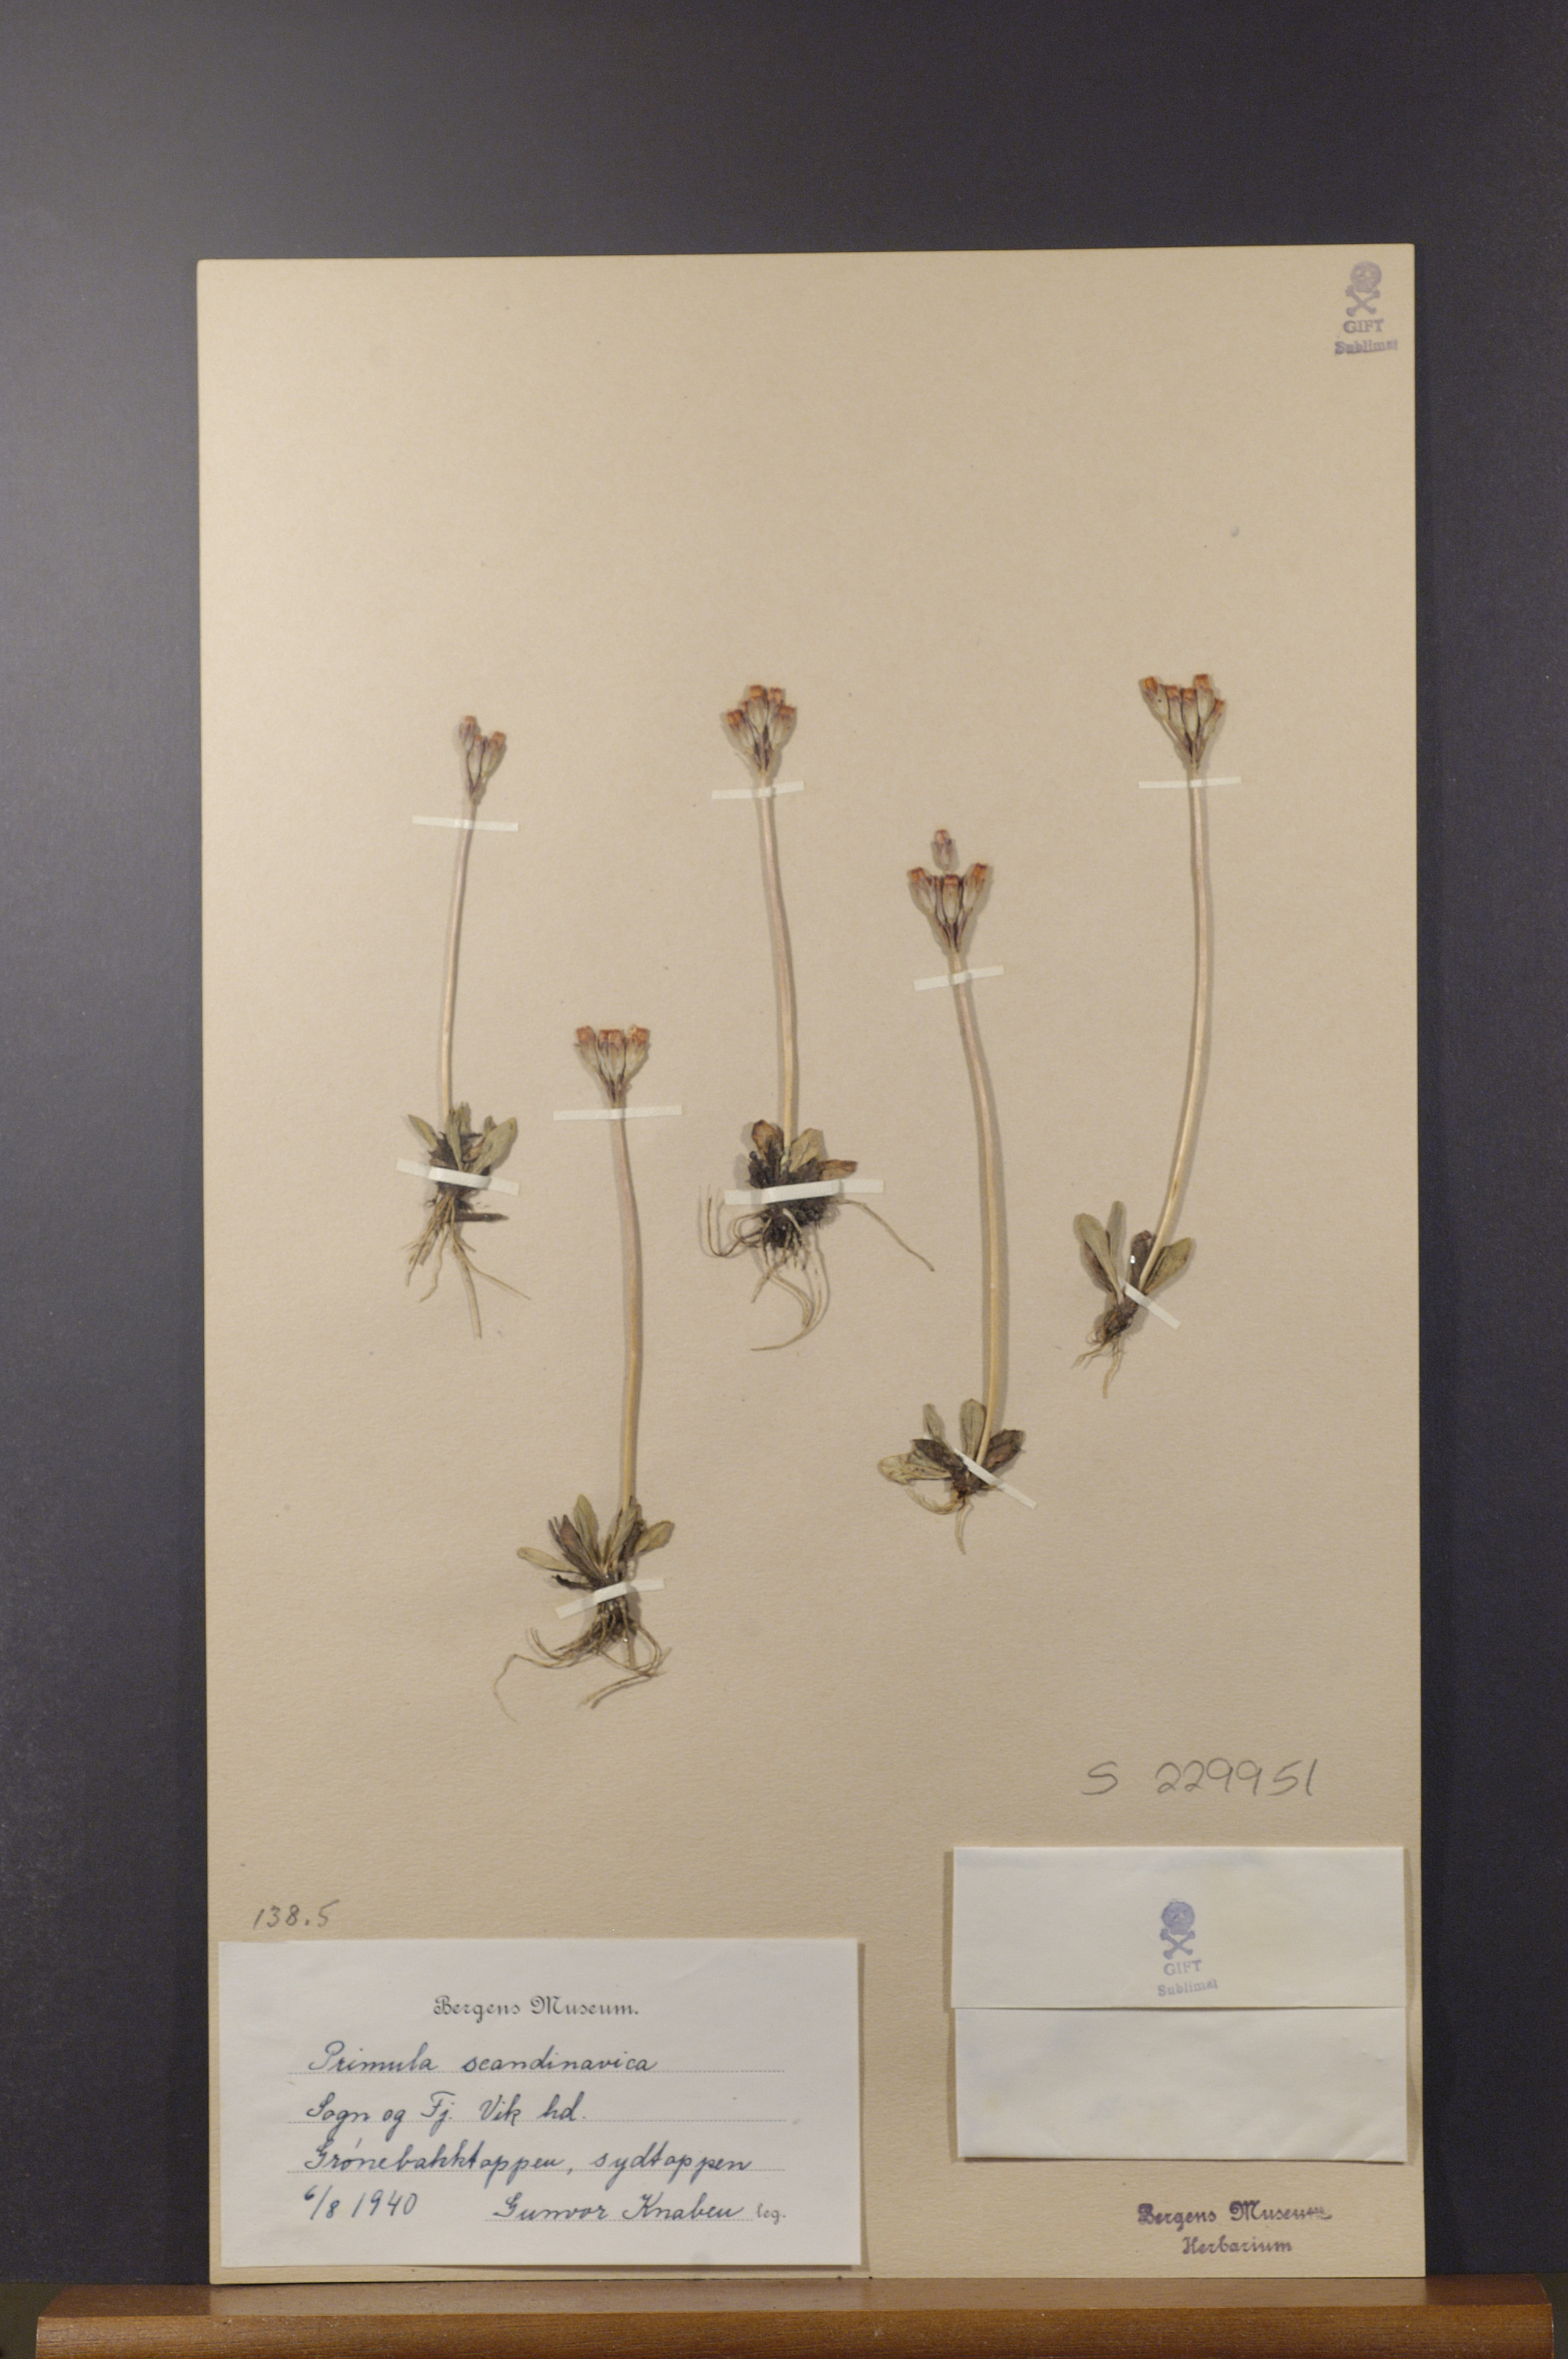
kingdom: Plantae
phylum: Tracheophyta
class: Magnoliopsida
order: Ericales
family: Primulaceae
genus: Primula
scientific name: Primula scandinavica
